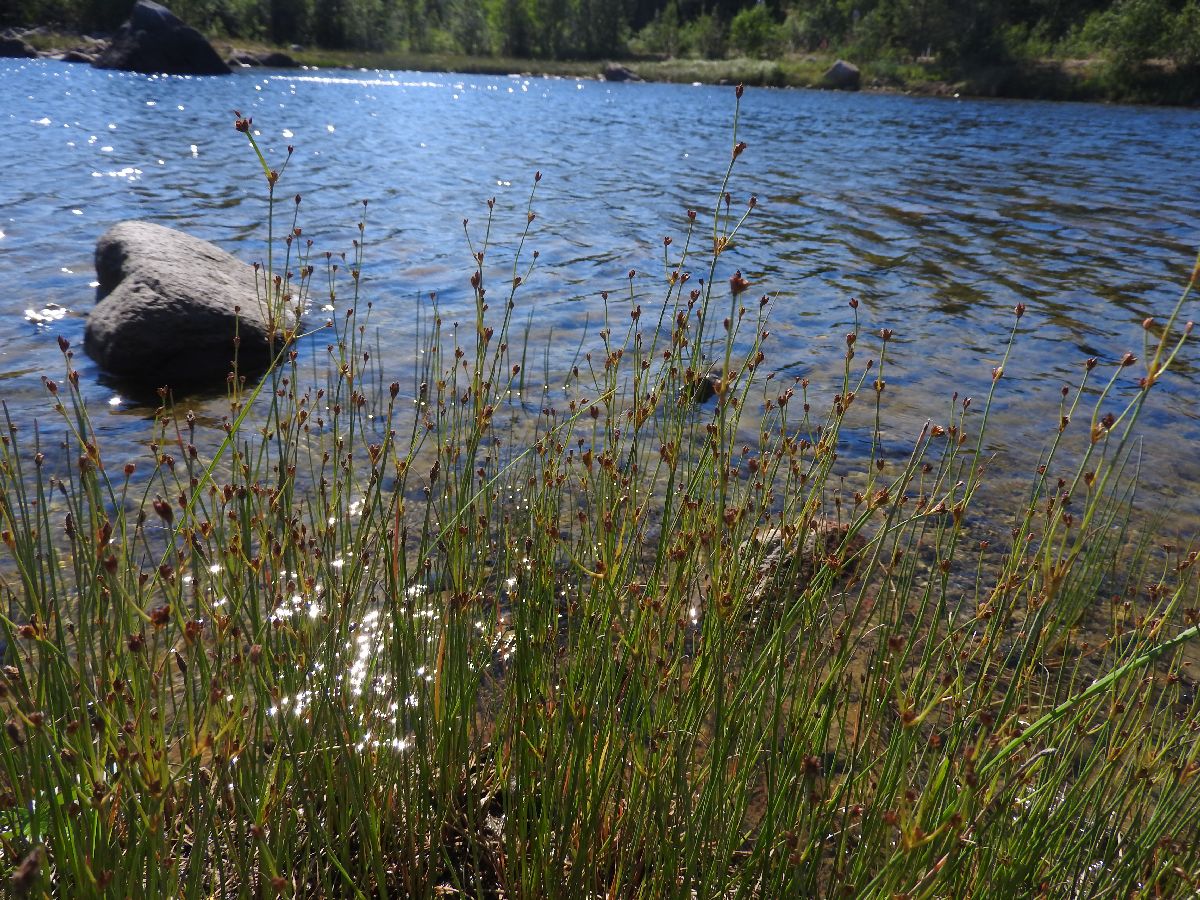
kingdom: Plantae
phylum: Tracheophyta
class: Liliopsida
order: Poales
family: Juncaceae
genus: Juncus
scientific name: Juncus alpinoarticulatus
